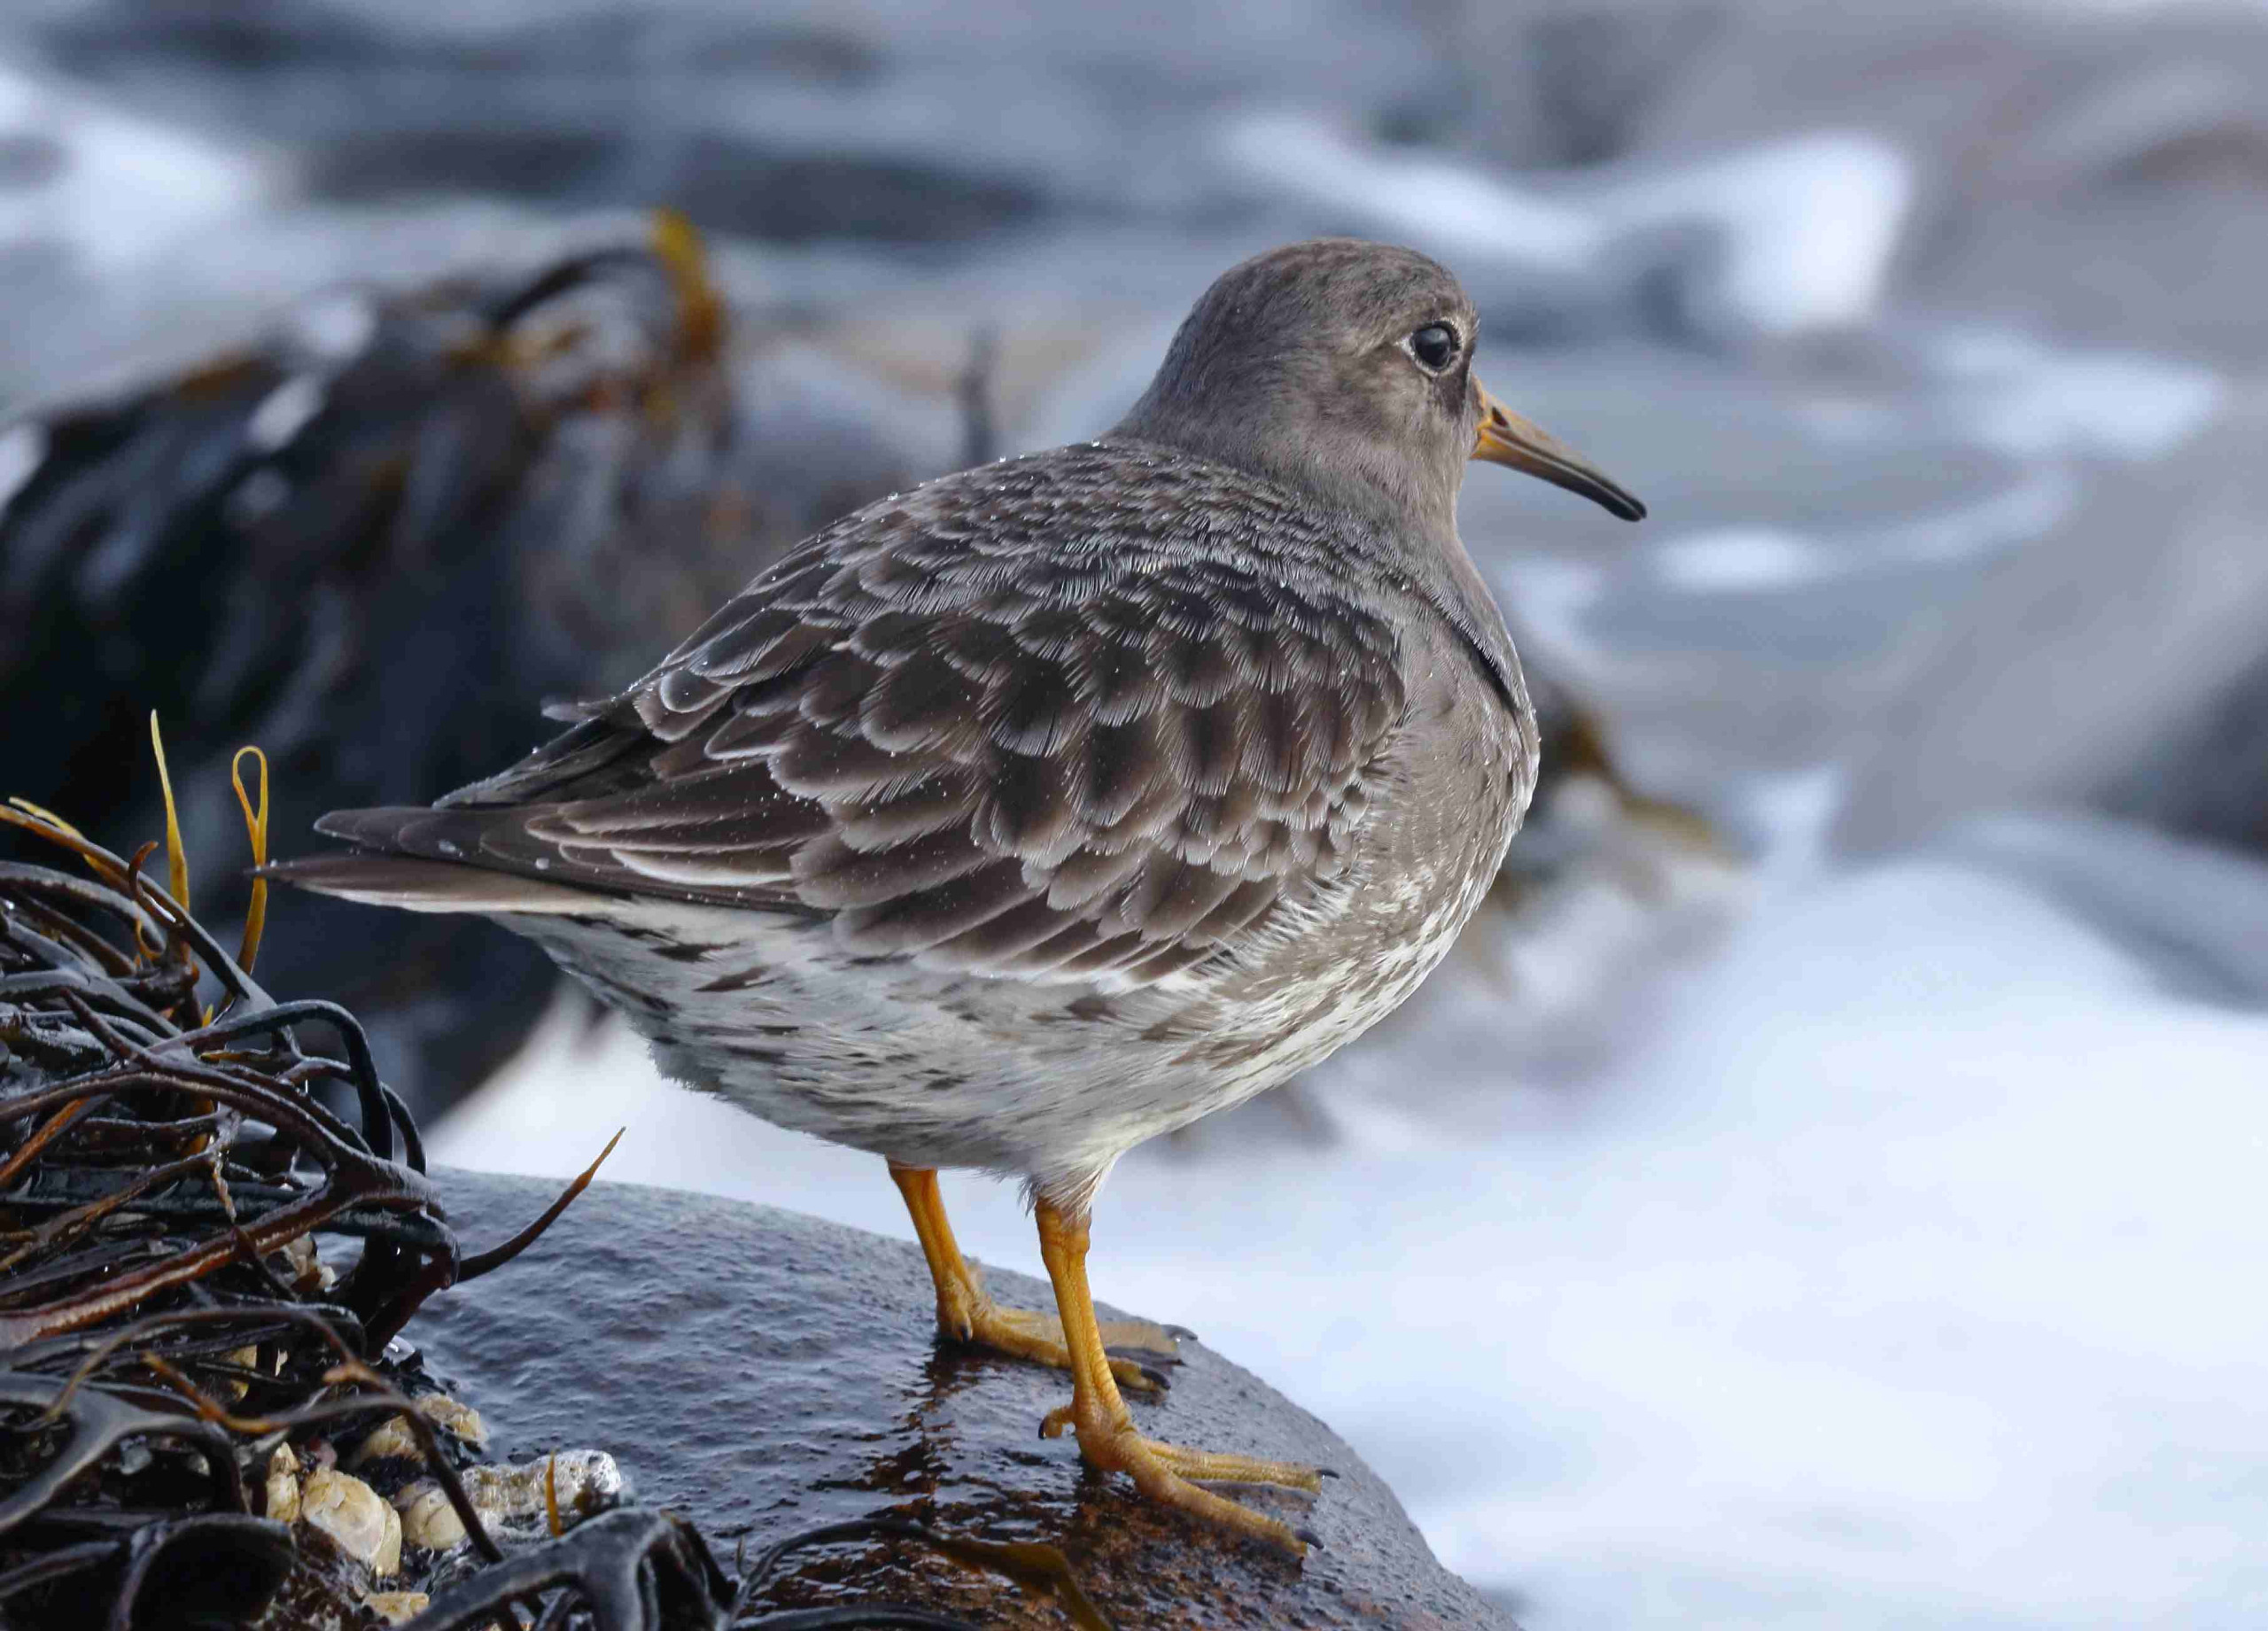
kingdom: Animalia
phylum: Chordata
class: Aves
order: Charadriiformes
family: Scolopacidae
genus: Calidris
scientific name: Calidris maritima
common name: Sortgrå ryle
